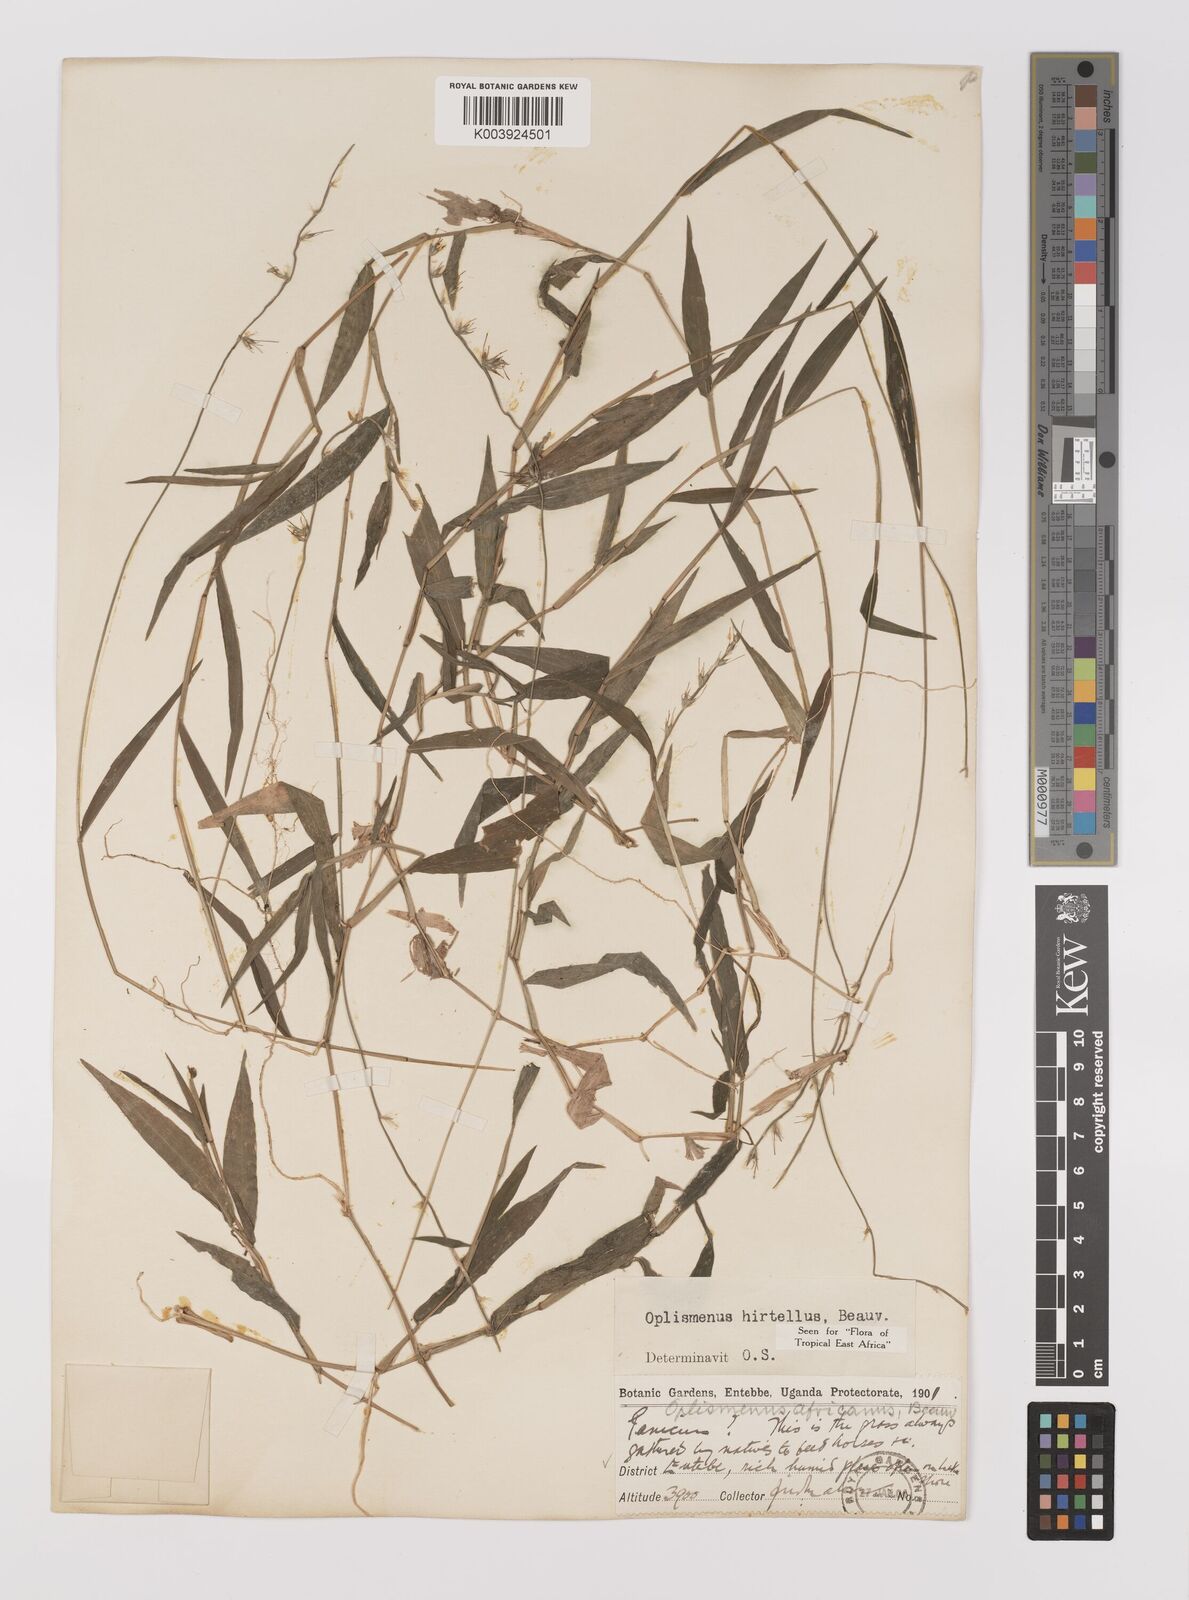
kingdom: Plantae
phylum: Tracheophyta
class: Liliopsida
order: Poales
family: Poaceae
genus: Oplismenus
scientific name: Oplismenus hirtellus
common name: Basketgrass
